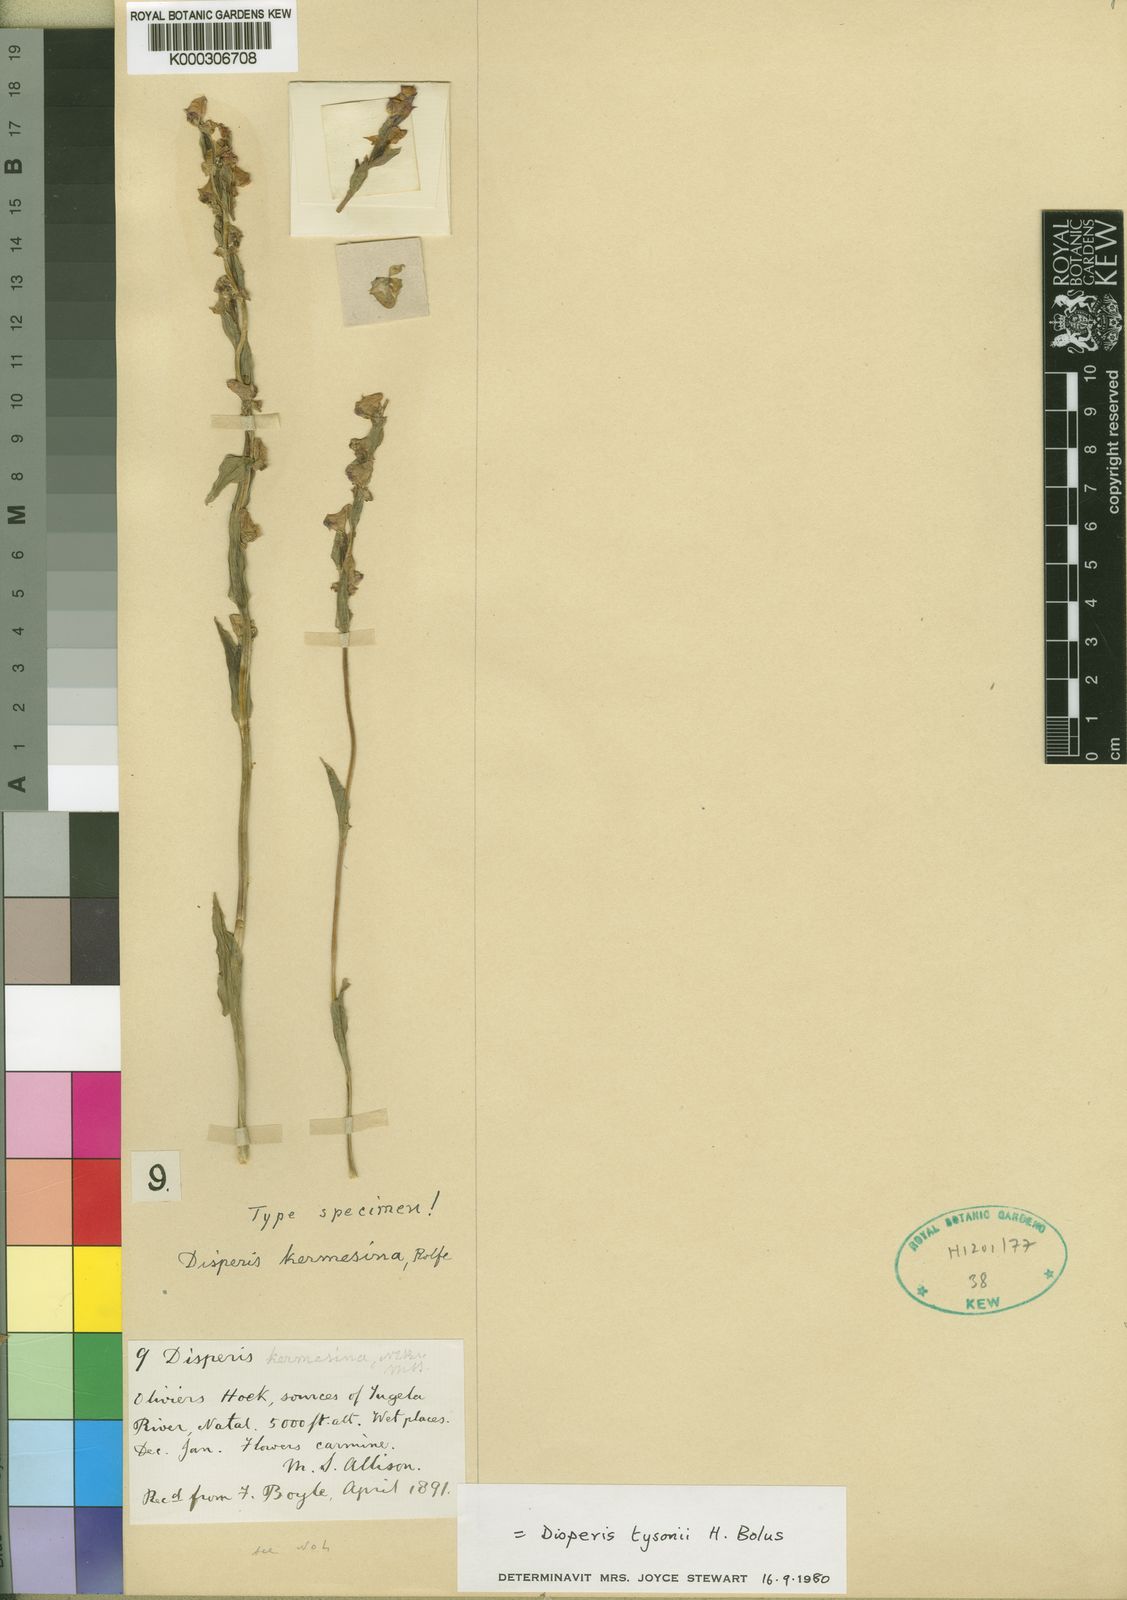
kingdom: Plantae
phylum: Tracheophyta
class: Liliopsida
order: Asparagales
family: Orchidaceae
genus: Disperis
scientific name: Disperis tysonii
